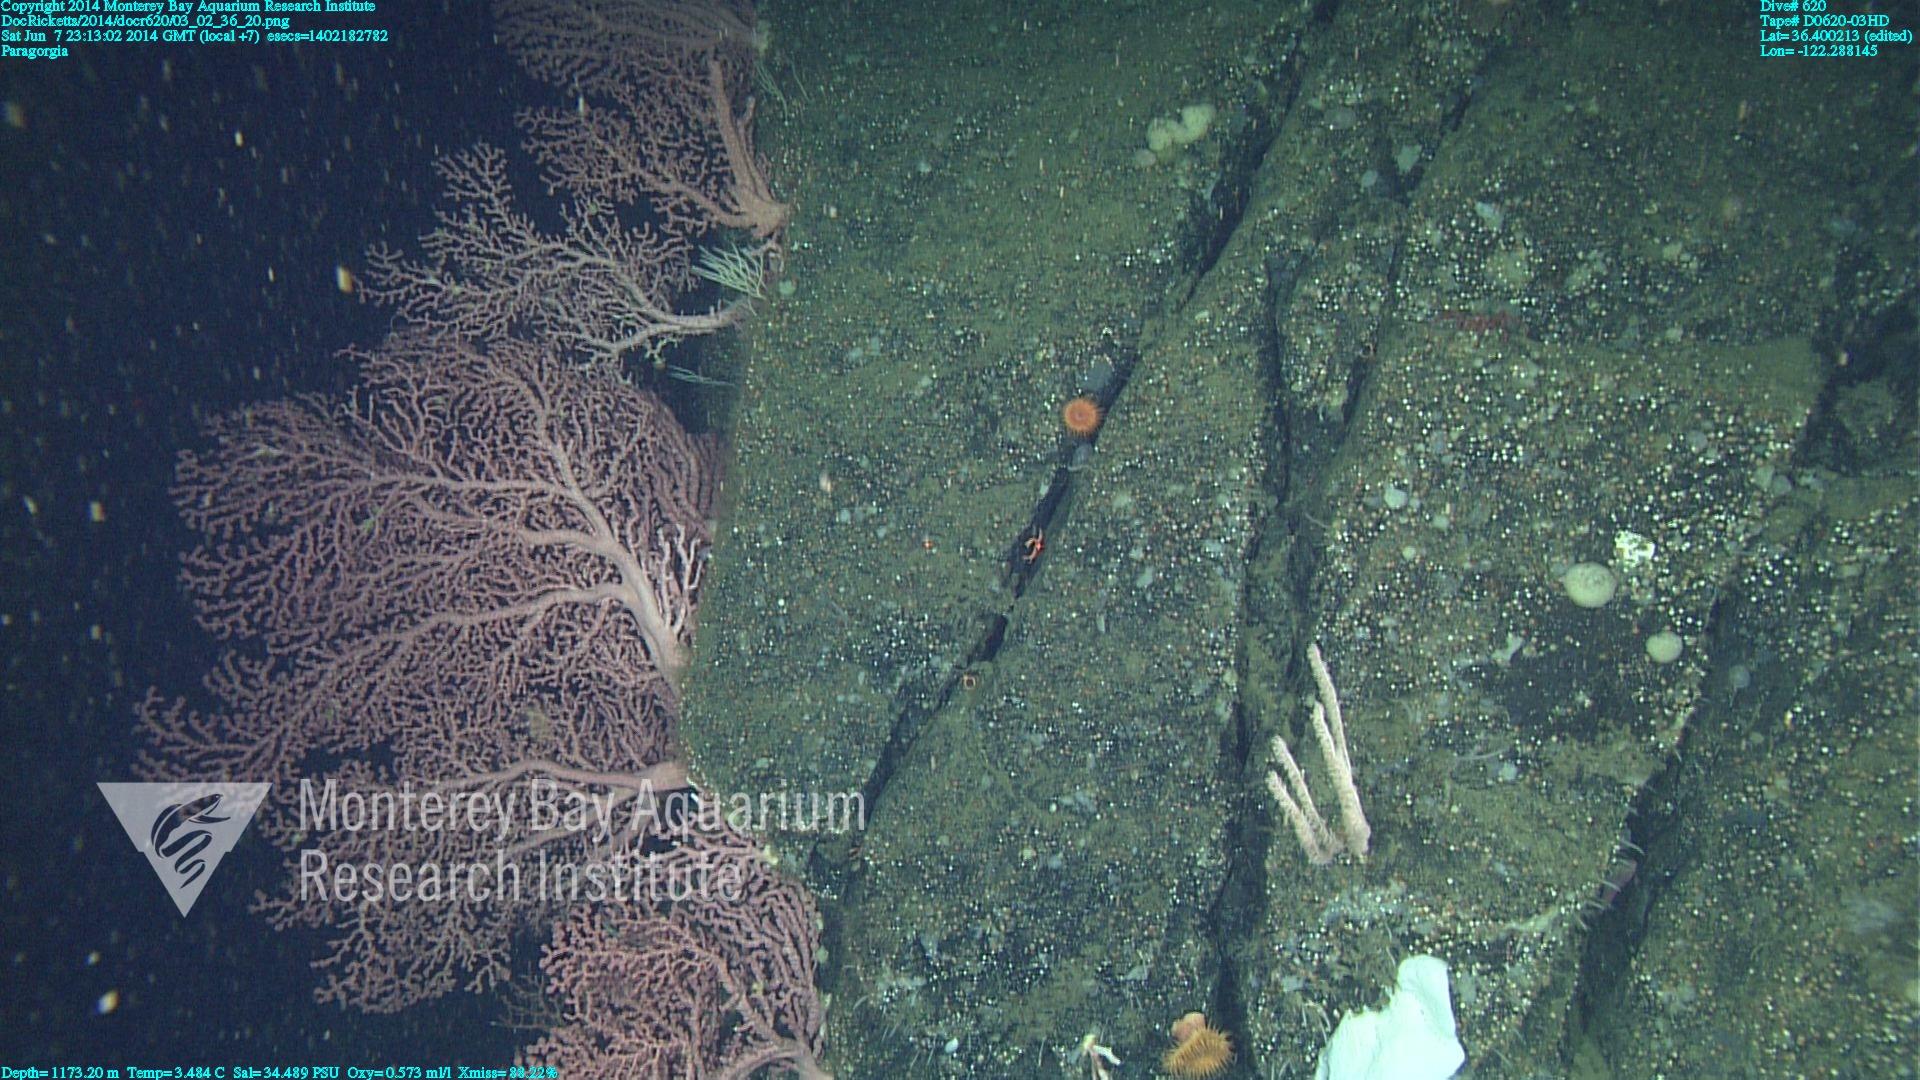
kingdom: Animalia
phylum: Cnidaria
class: Anthozoa
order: Scleralcyonacea
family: Coralliidae
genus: Paragorgia
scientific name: Paragorgia arborea
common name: Bubble gum coral
